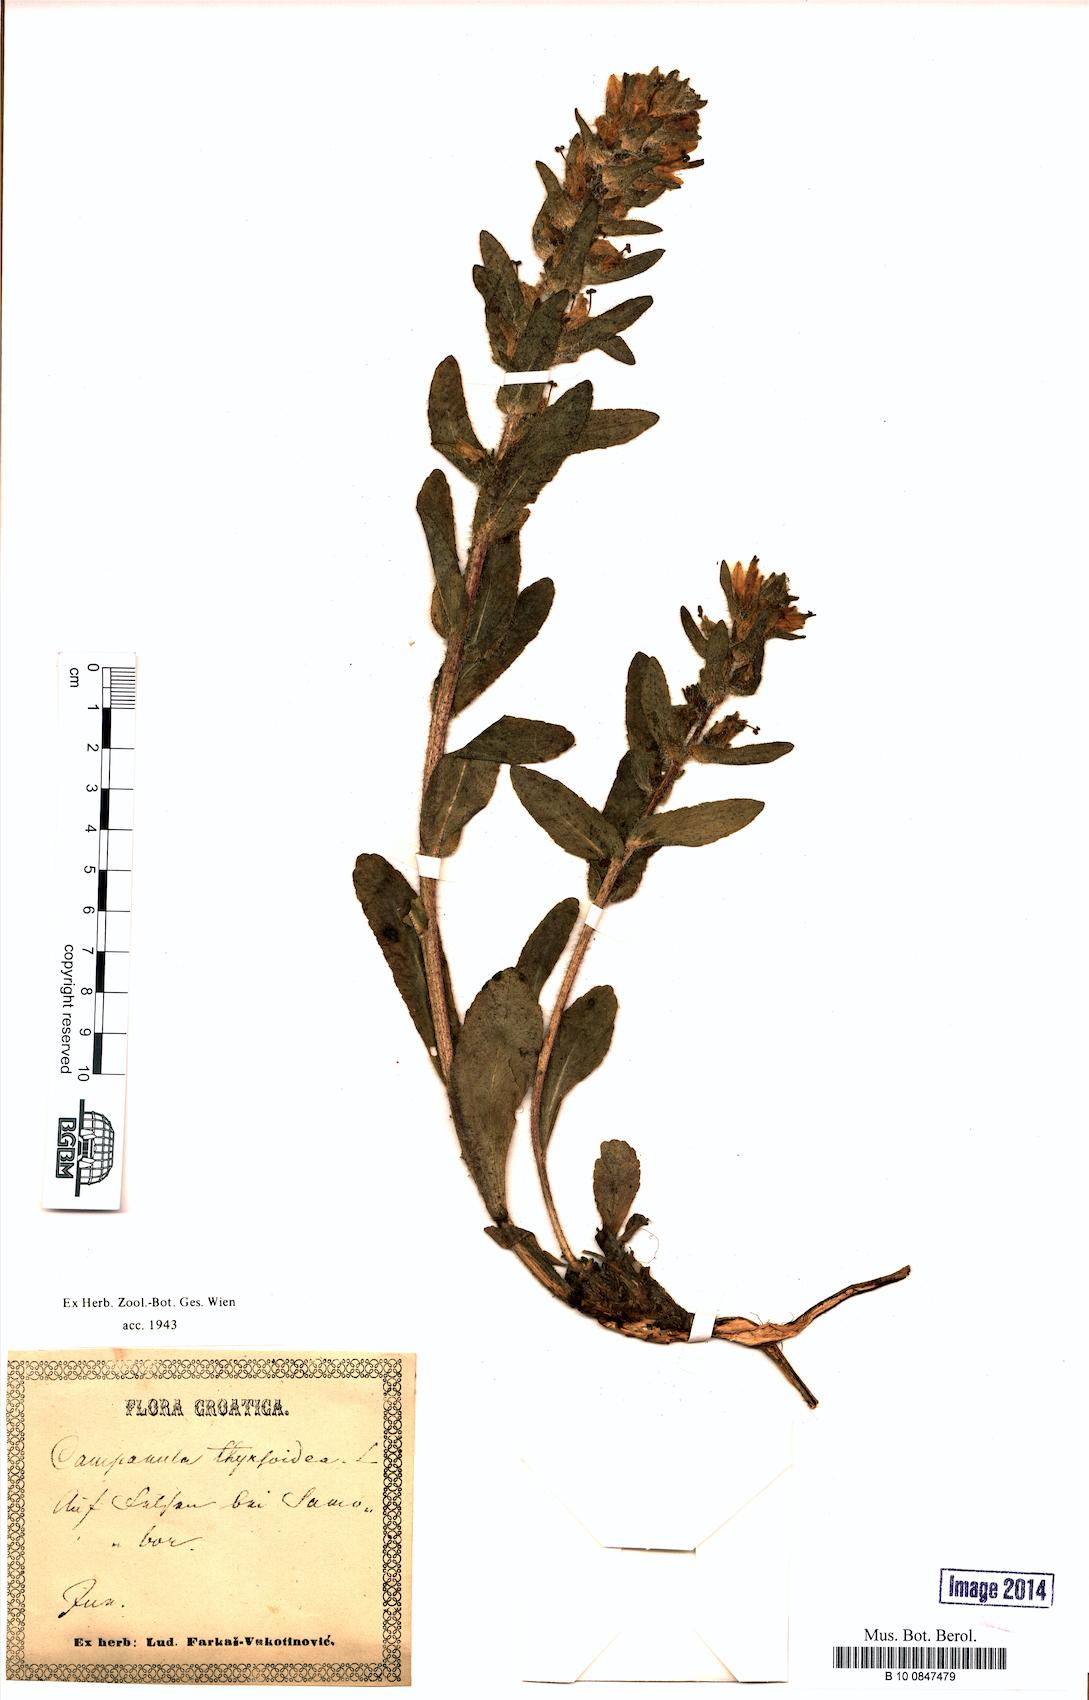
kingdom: Plantae
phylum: Tracheophyta
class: Magnoliopsida
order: Asterales
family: Campanulaceae
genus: Campanula
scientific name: Campanula thyrsoides
